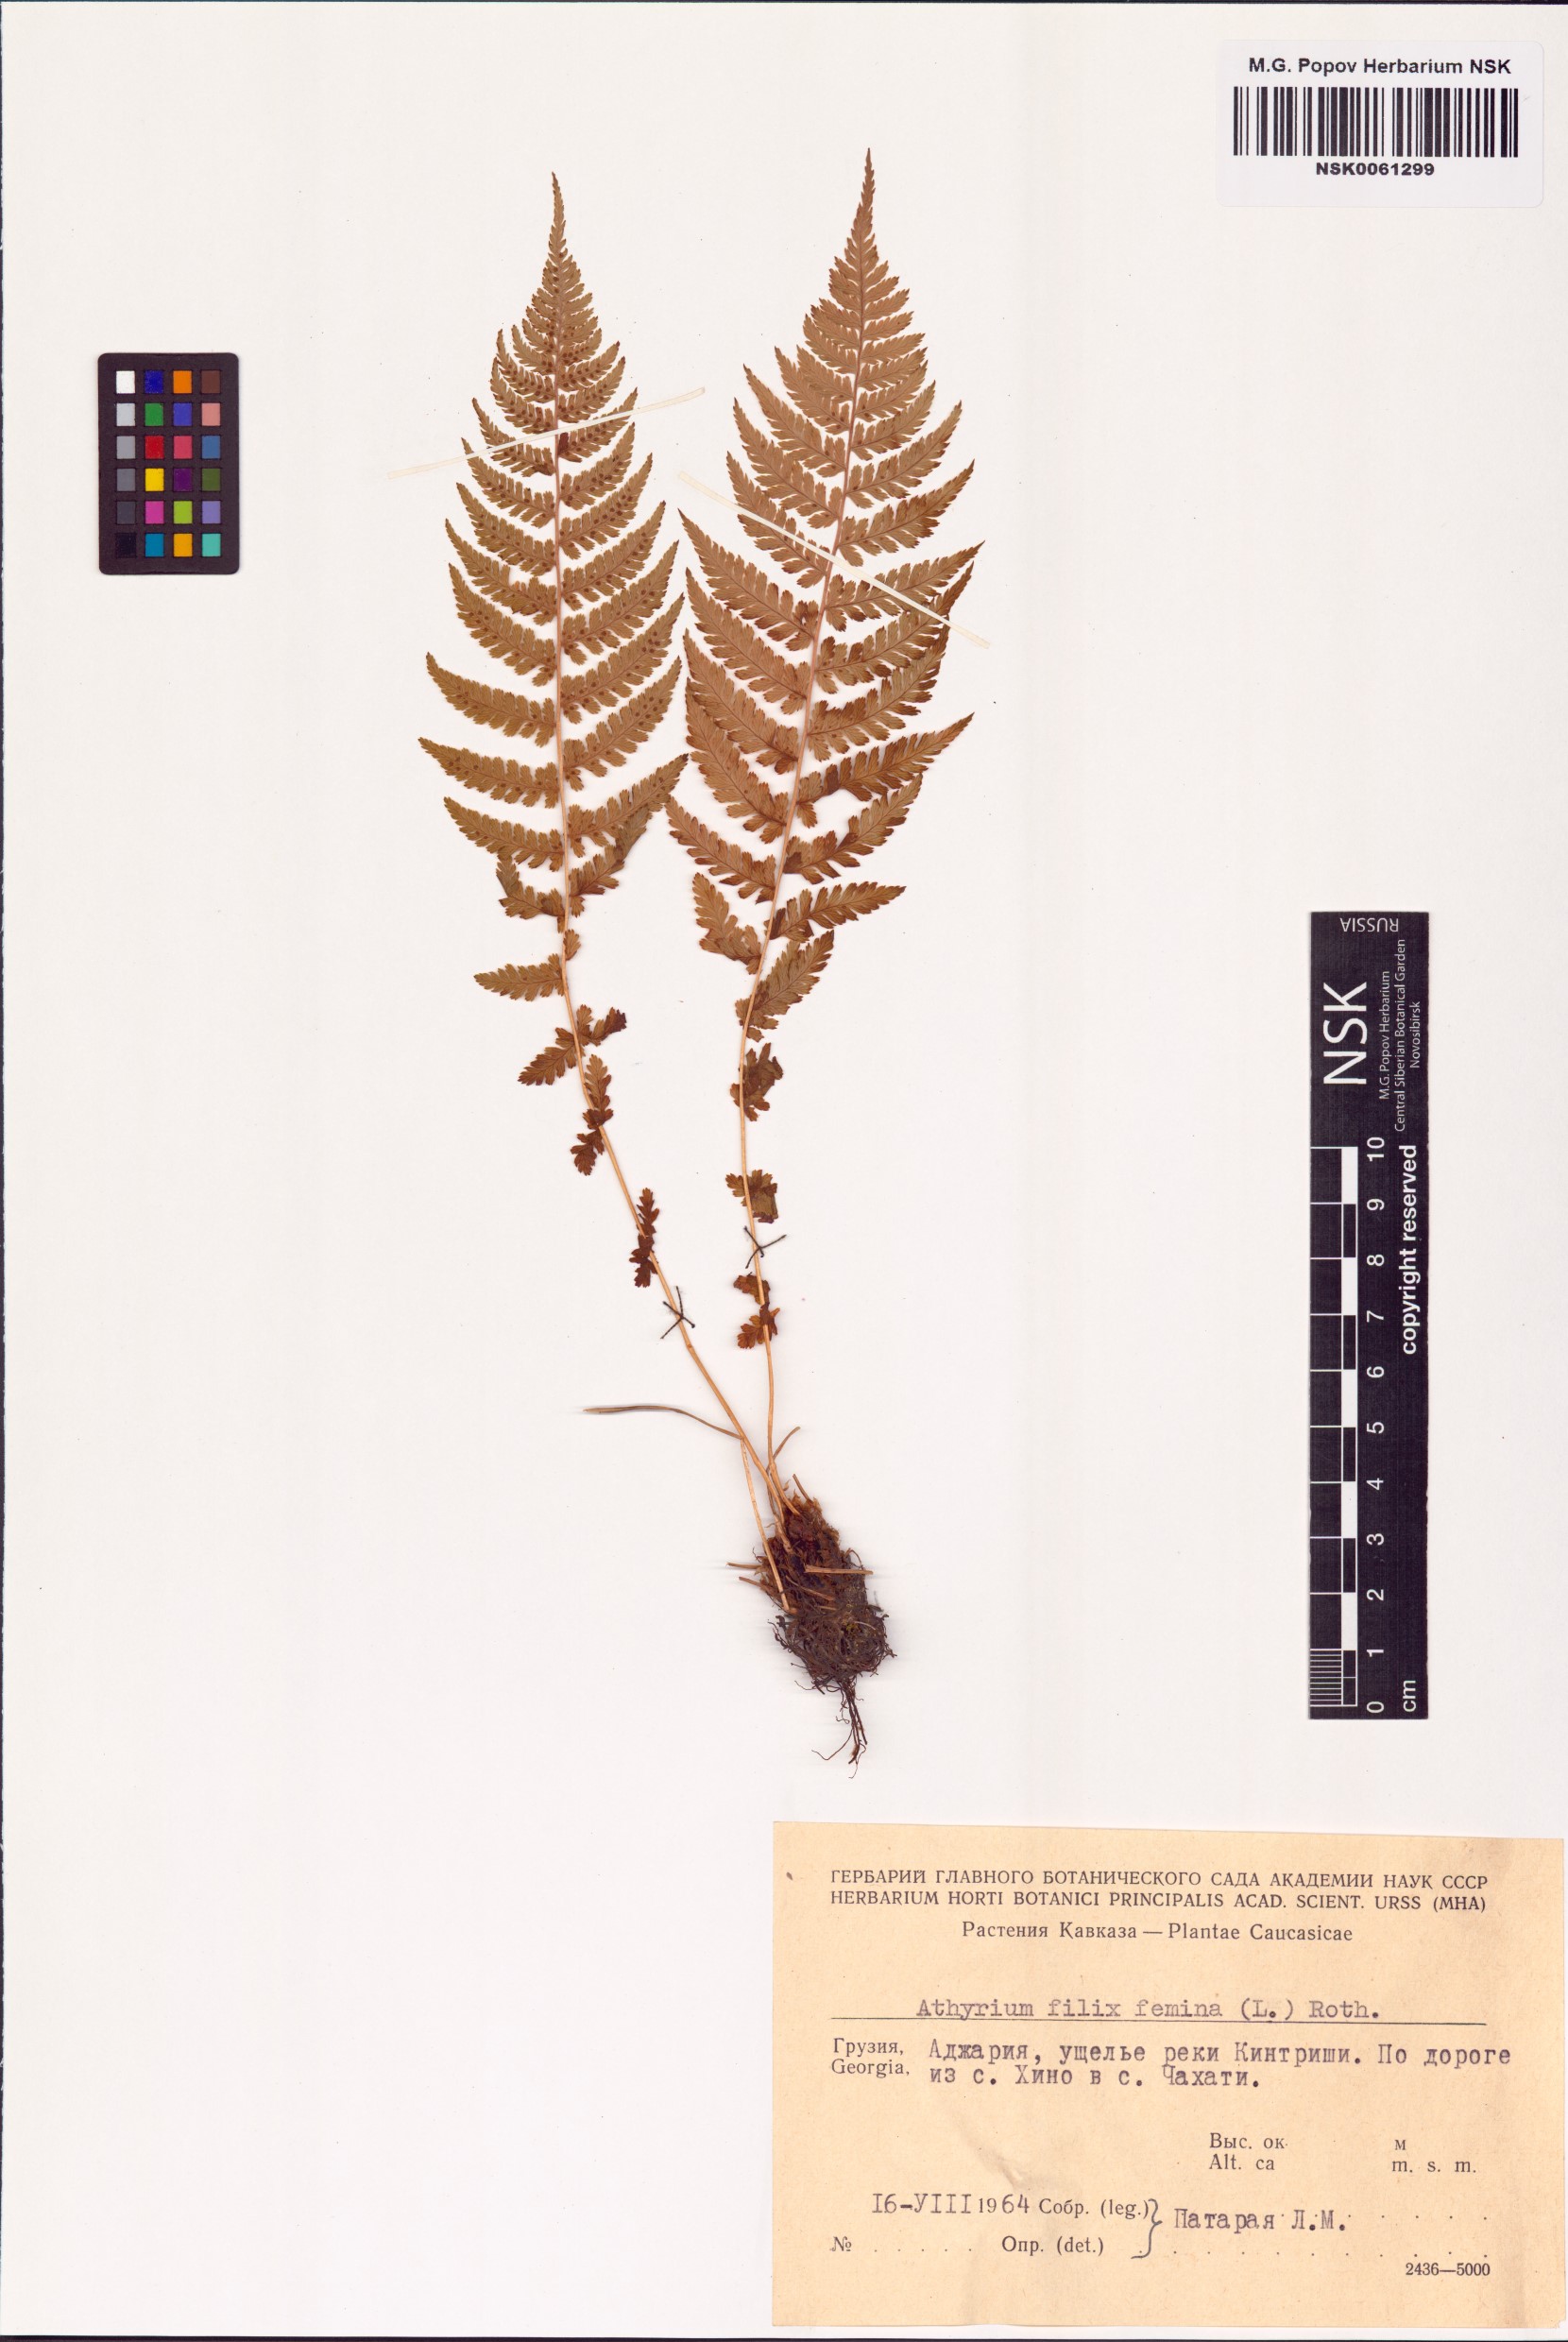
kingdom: Plantae
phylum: Tracheophyta
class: Polypodiopsida
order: Polypodiales
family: Athyriaceae
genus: Athyrium
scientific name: Athyrium filix-femina
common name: Lady fern
